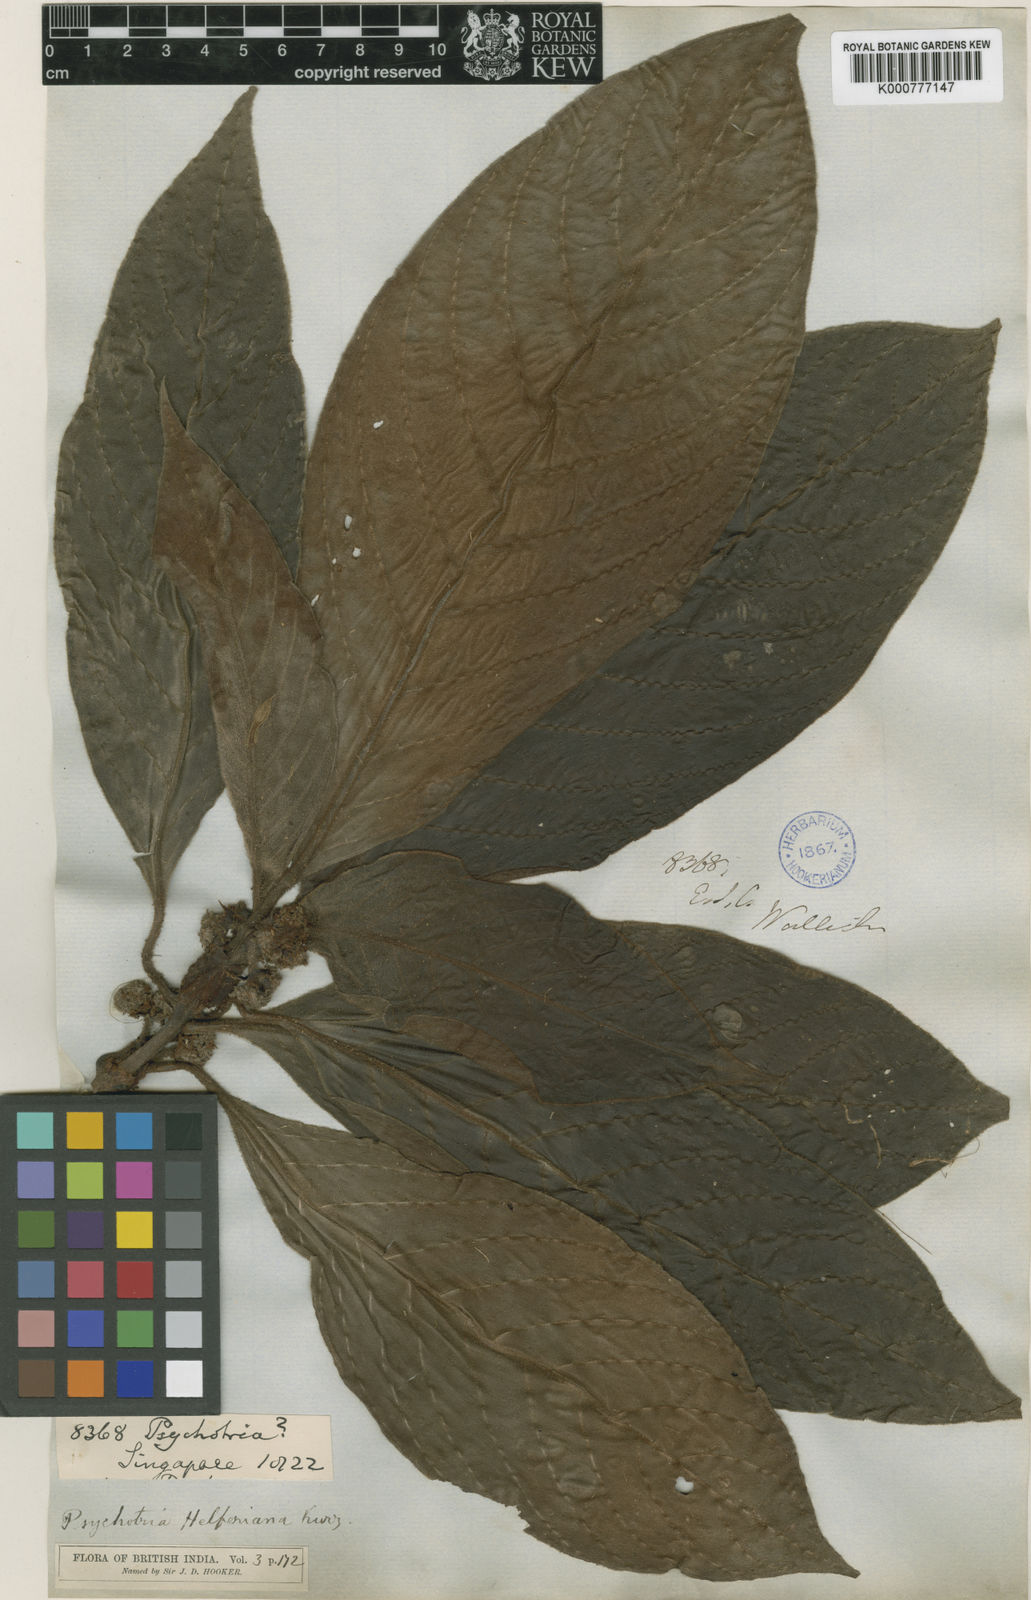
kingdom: Plantae
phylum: Tracheophyta
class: Magnoliopsida
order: Gentianales
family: Rubiaceae
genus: Psychotria
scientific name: Psychotria helferiana
